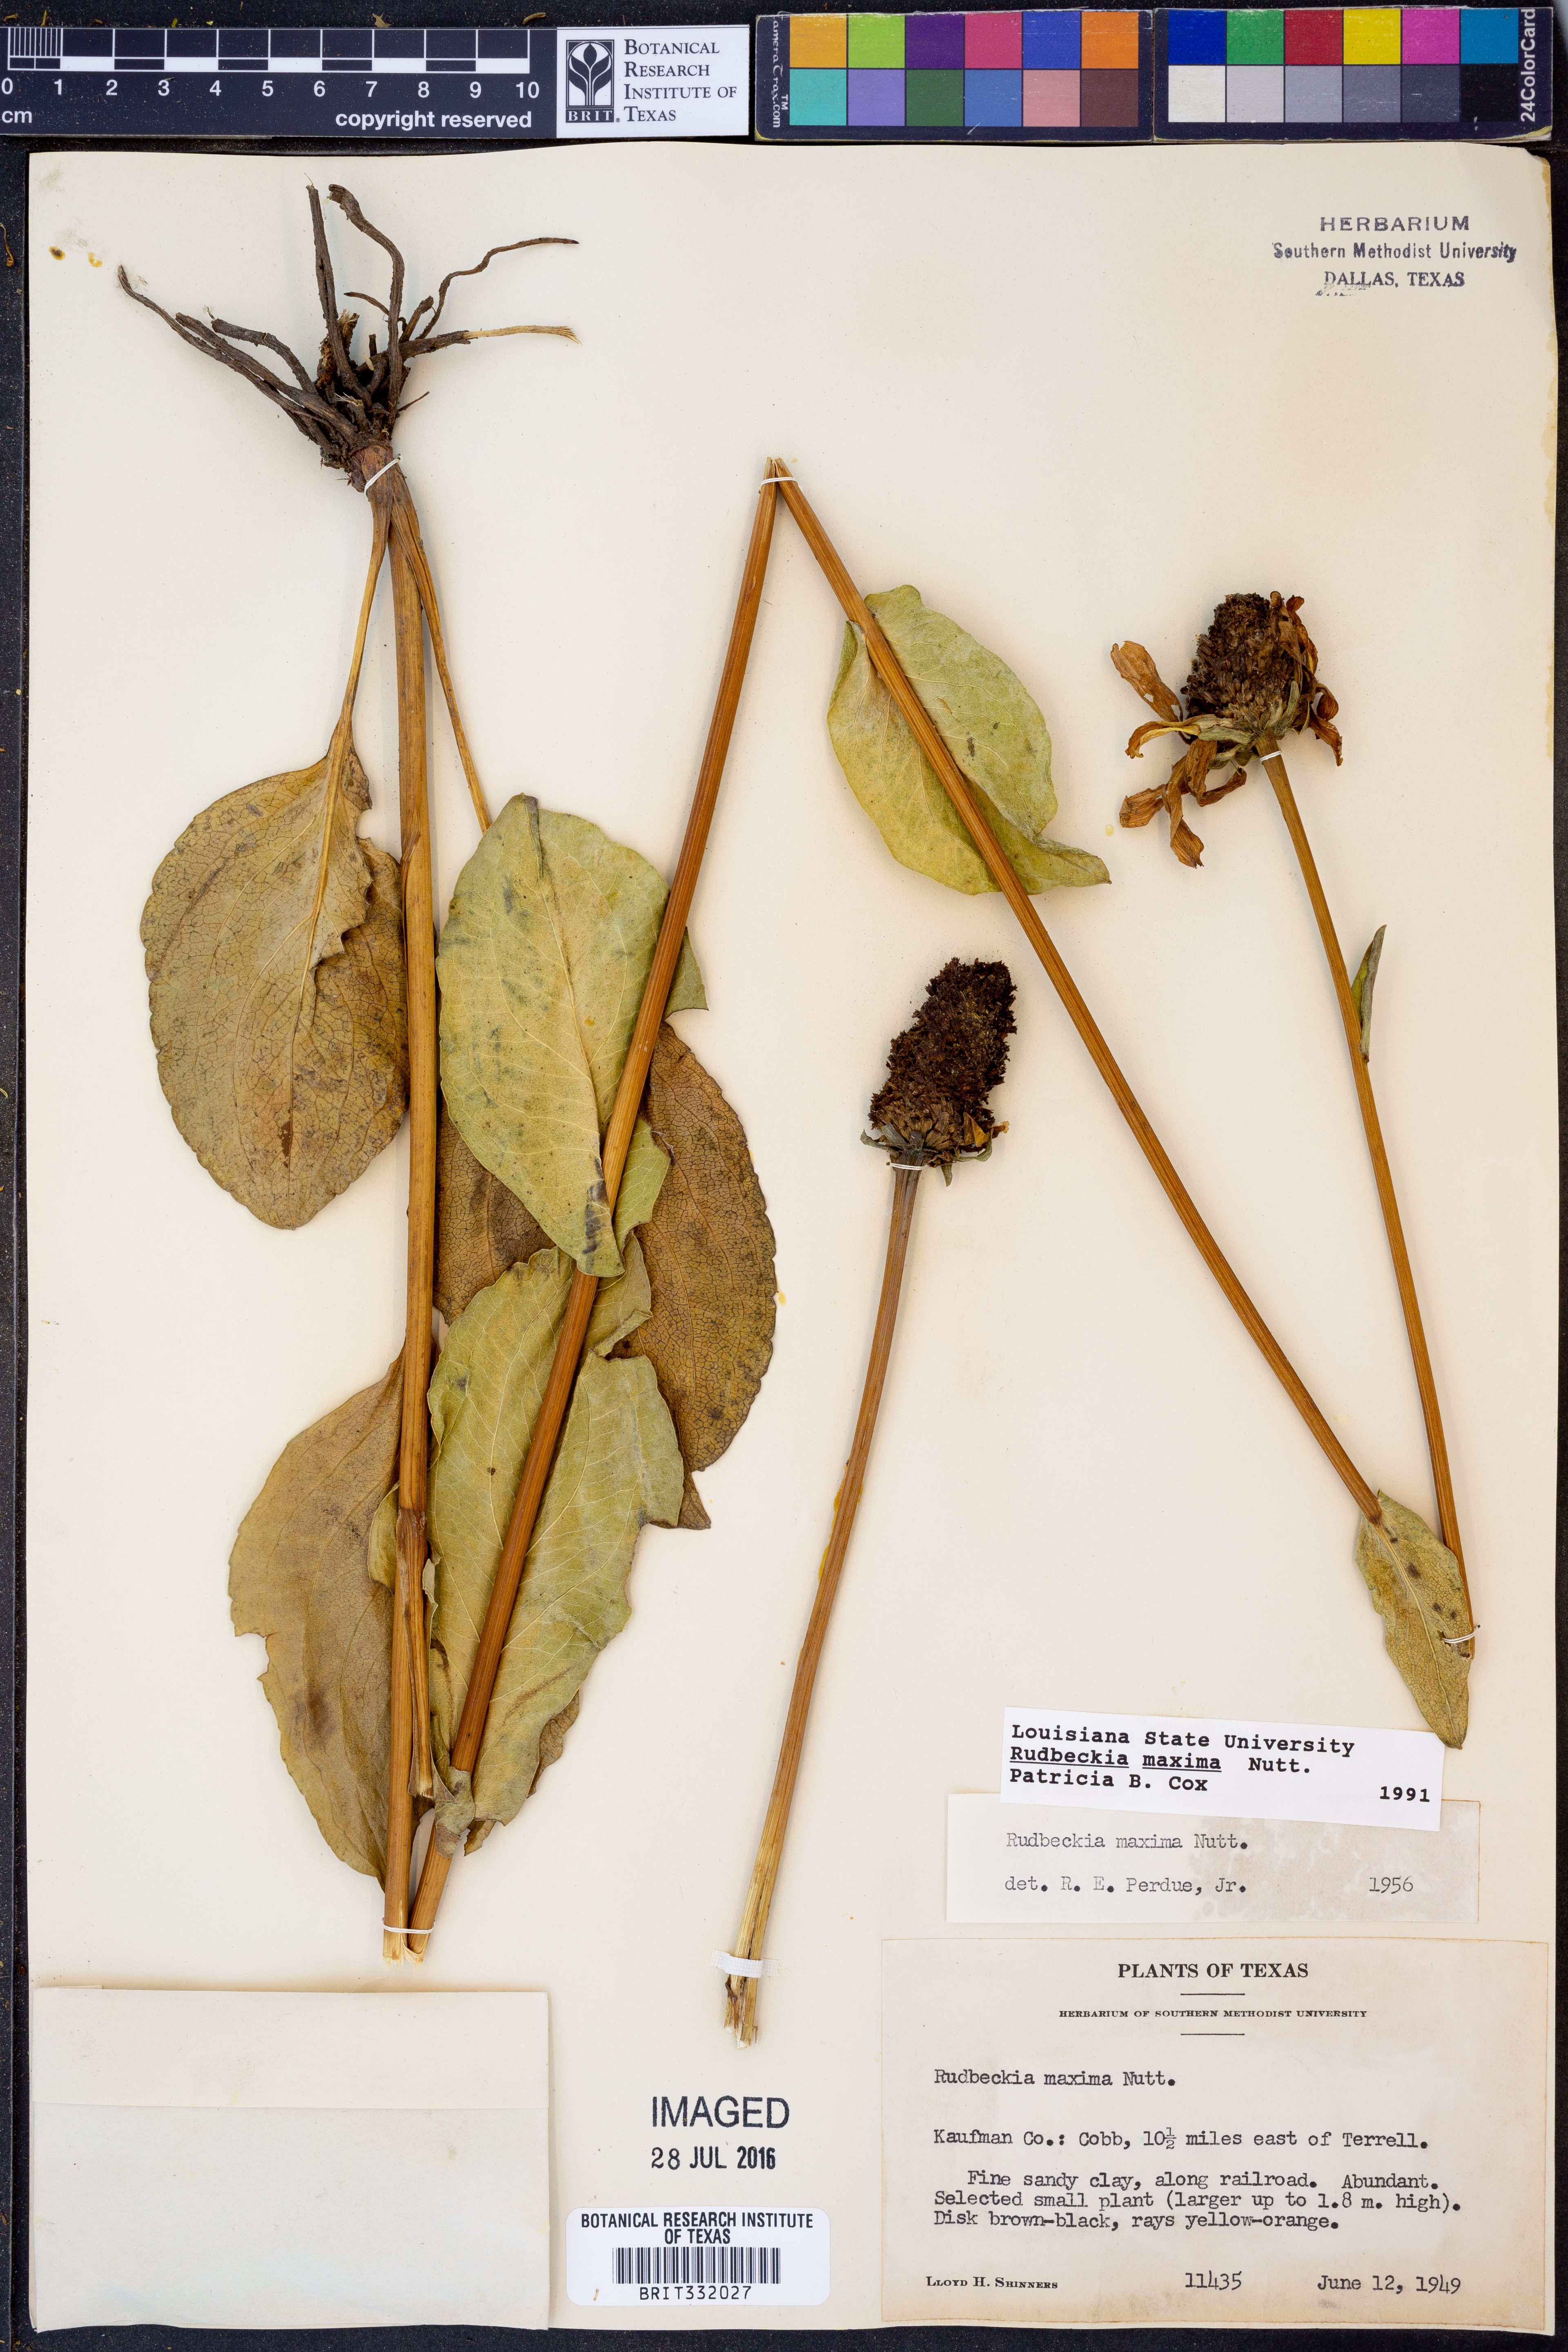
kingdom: Plantae
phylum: Tracheophyta
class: Magnoliopsida
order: Asterales
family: Asteraceae
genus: Rudbeckia
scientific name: Rudbeckia maxima
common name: Cabbage coneflower
